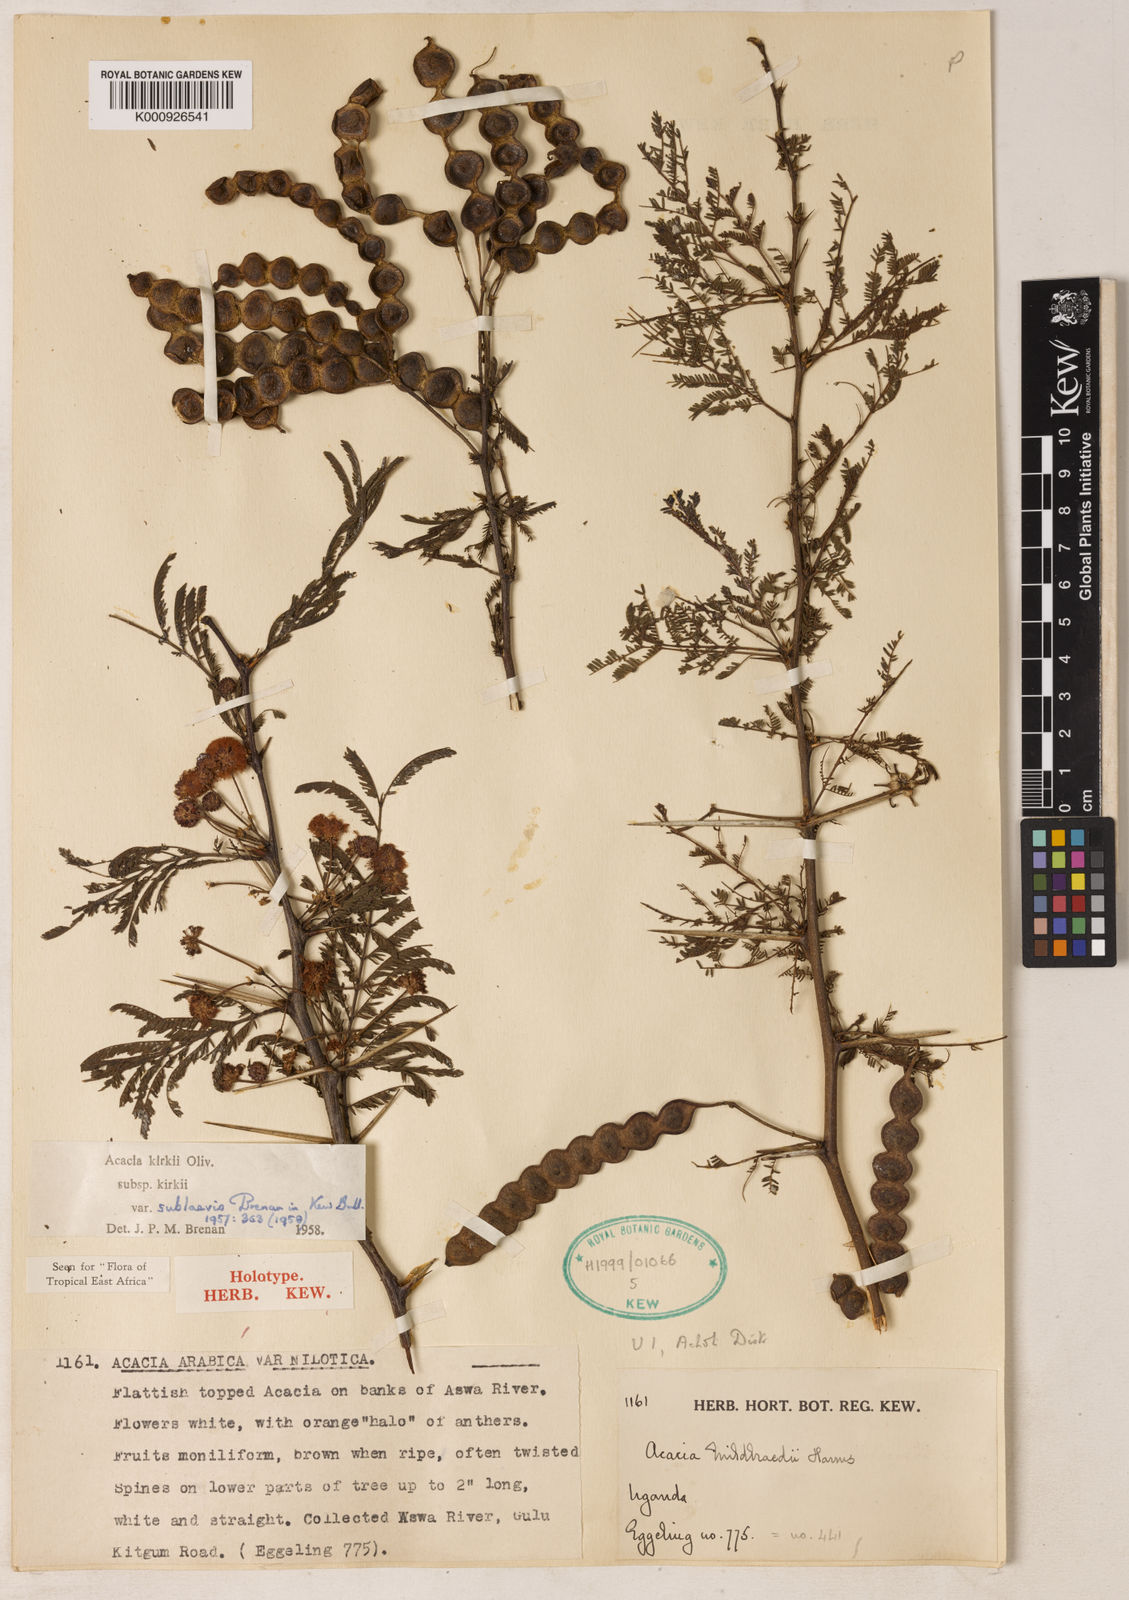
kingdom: Plantae
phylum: Tracheophyta
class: Magnoliopsida
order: Fabales
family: Fabaceae
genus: Vachellia
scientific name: Vachellia kirkii
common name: Flood-plain acacia
